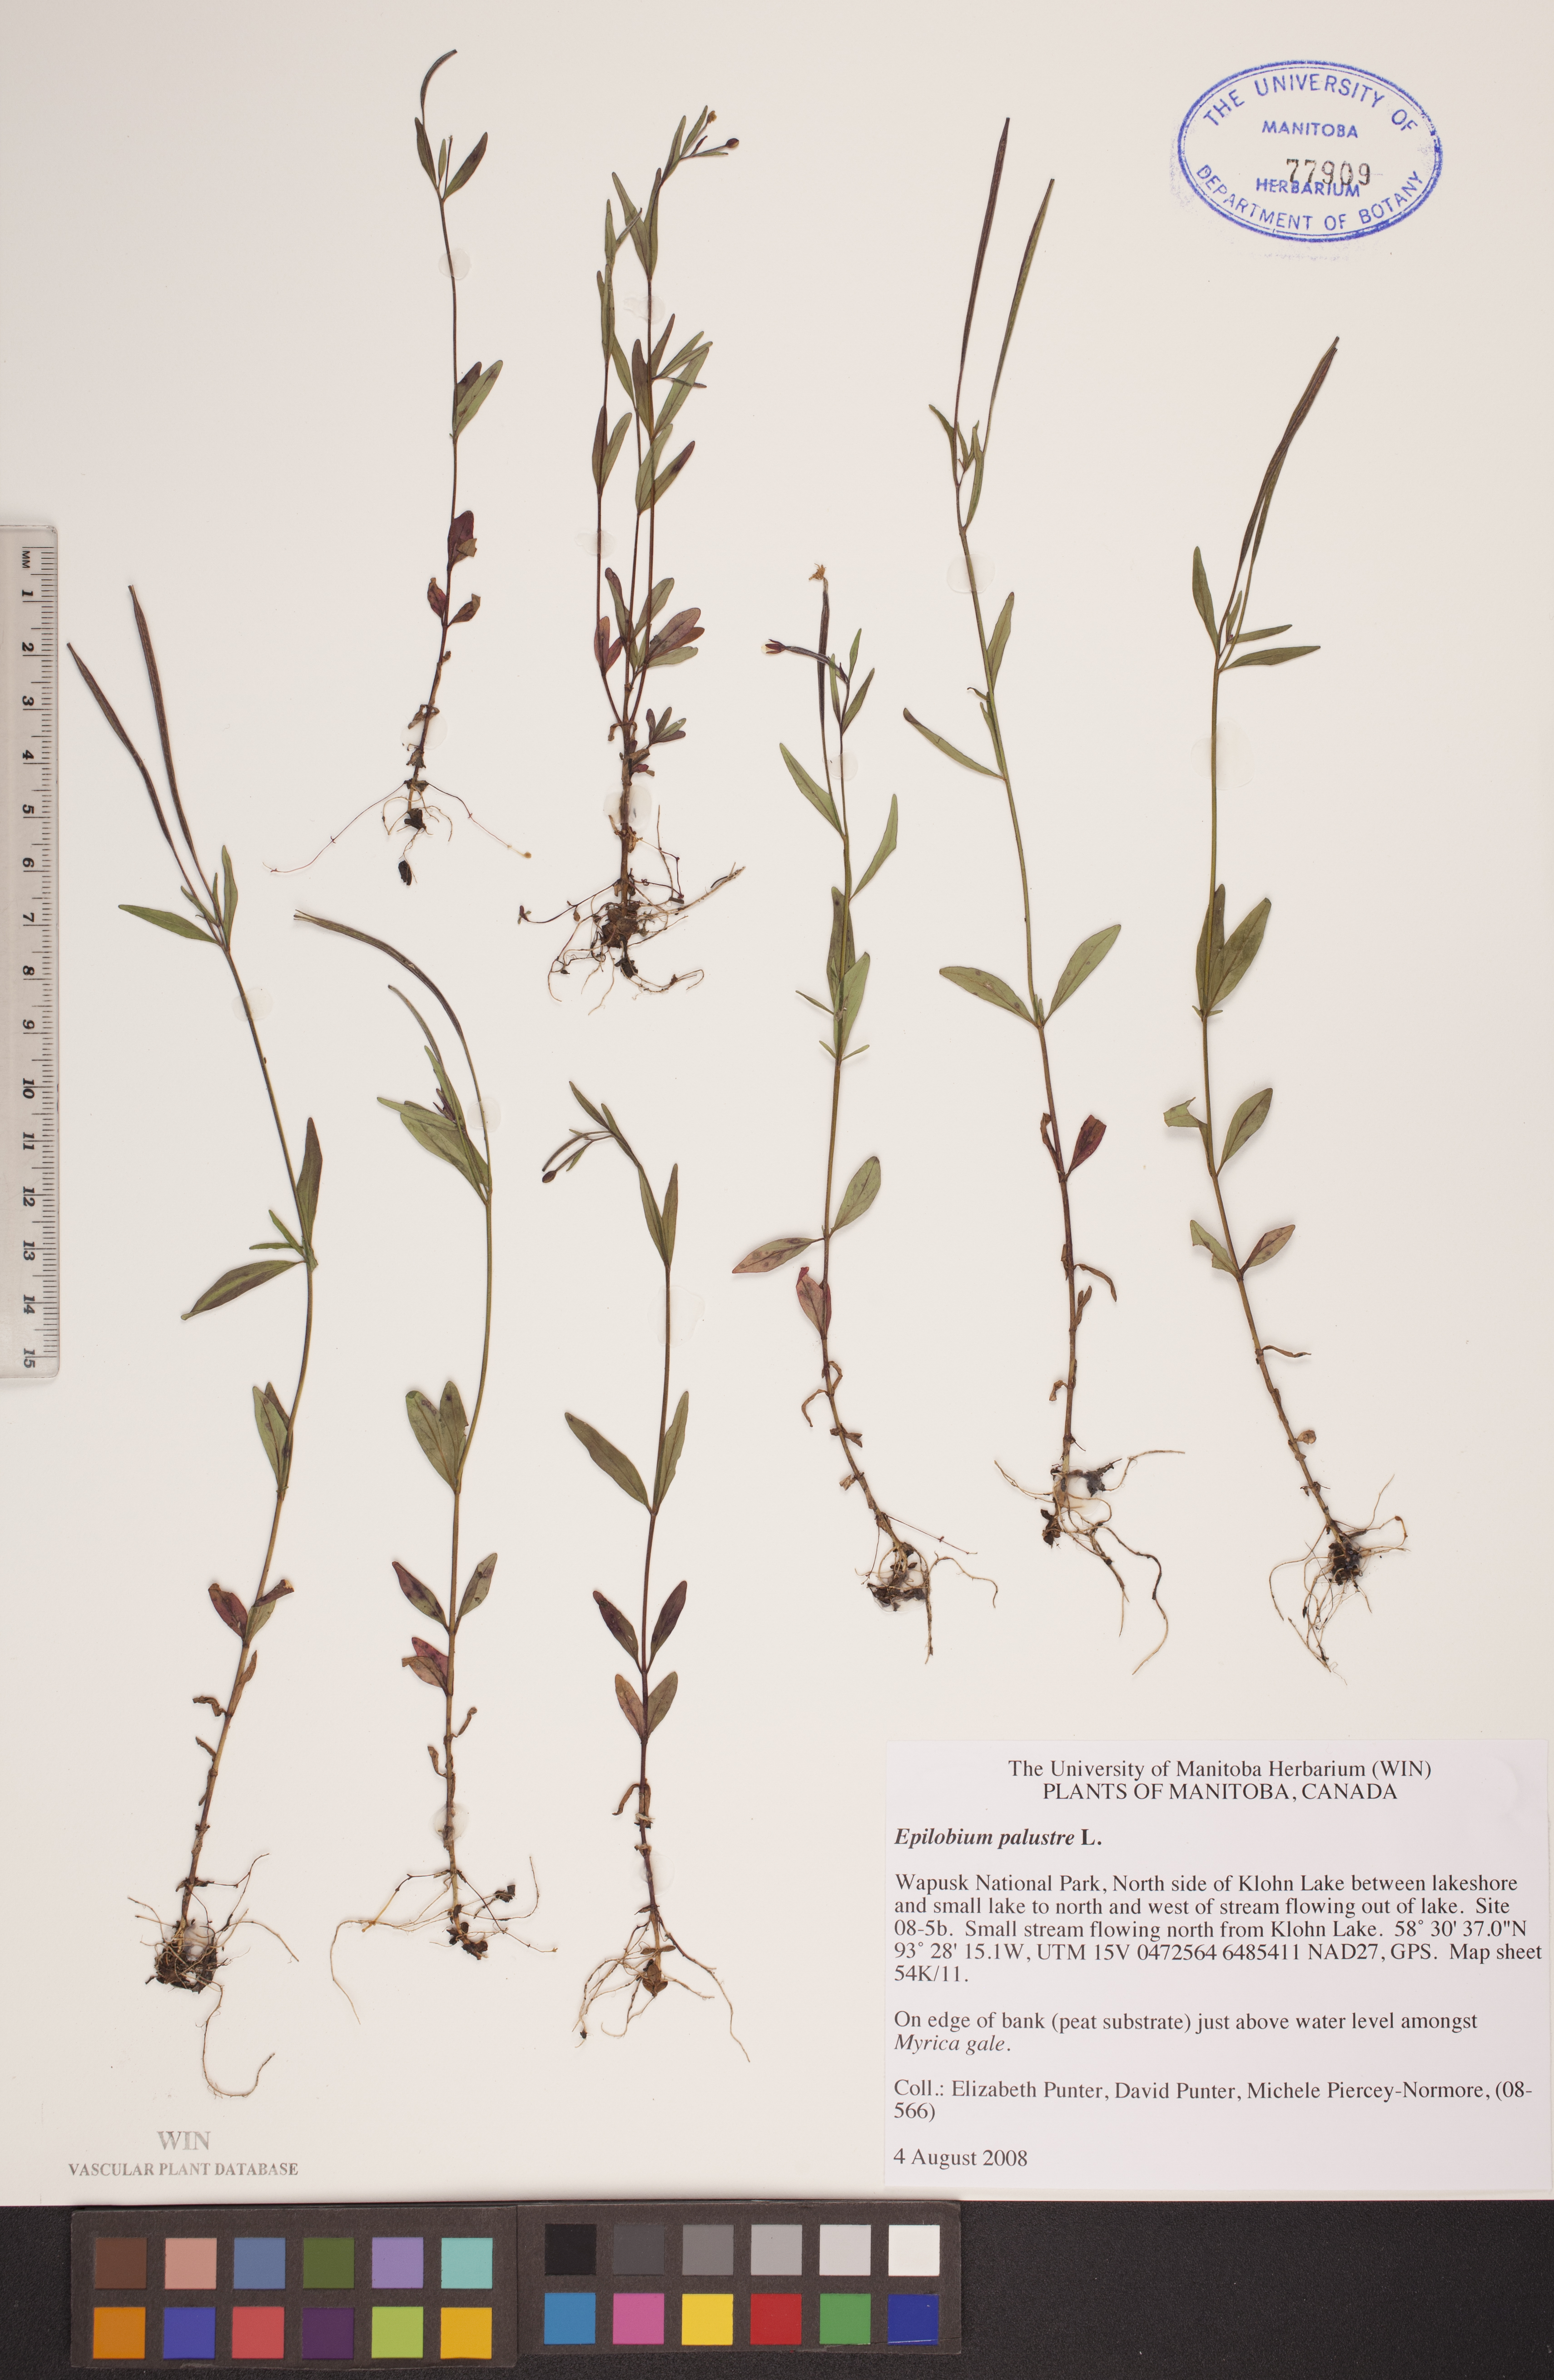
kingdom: Plantae
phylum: Tracheophyta
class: Magnoliopsida
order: Myrtales
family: Onagraceae
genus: Epilobium
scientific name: Epilobium palustre
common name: Marsh willowherb
